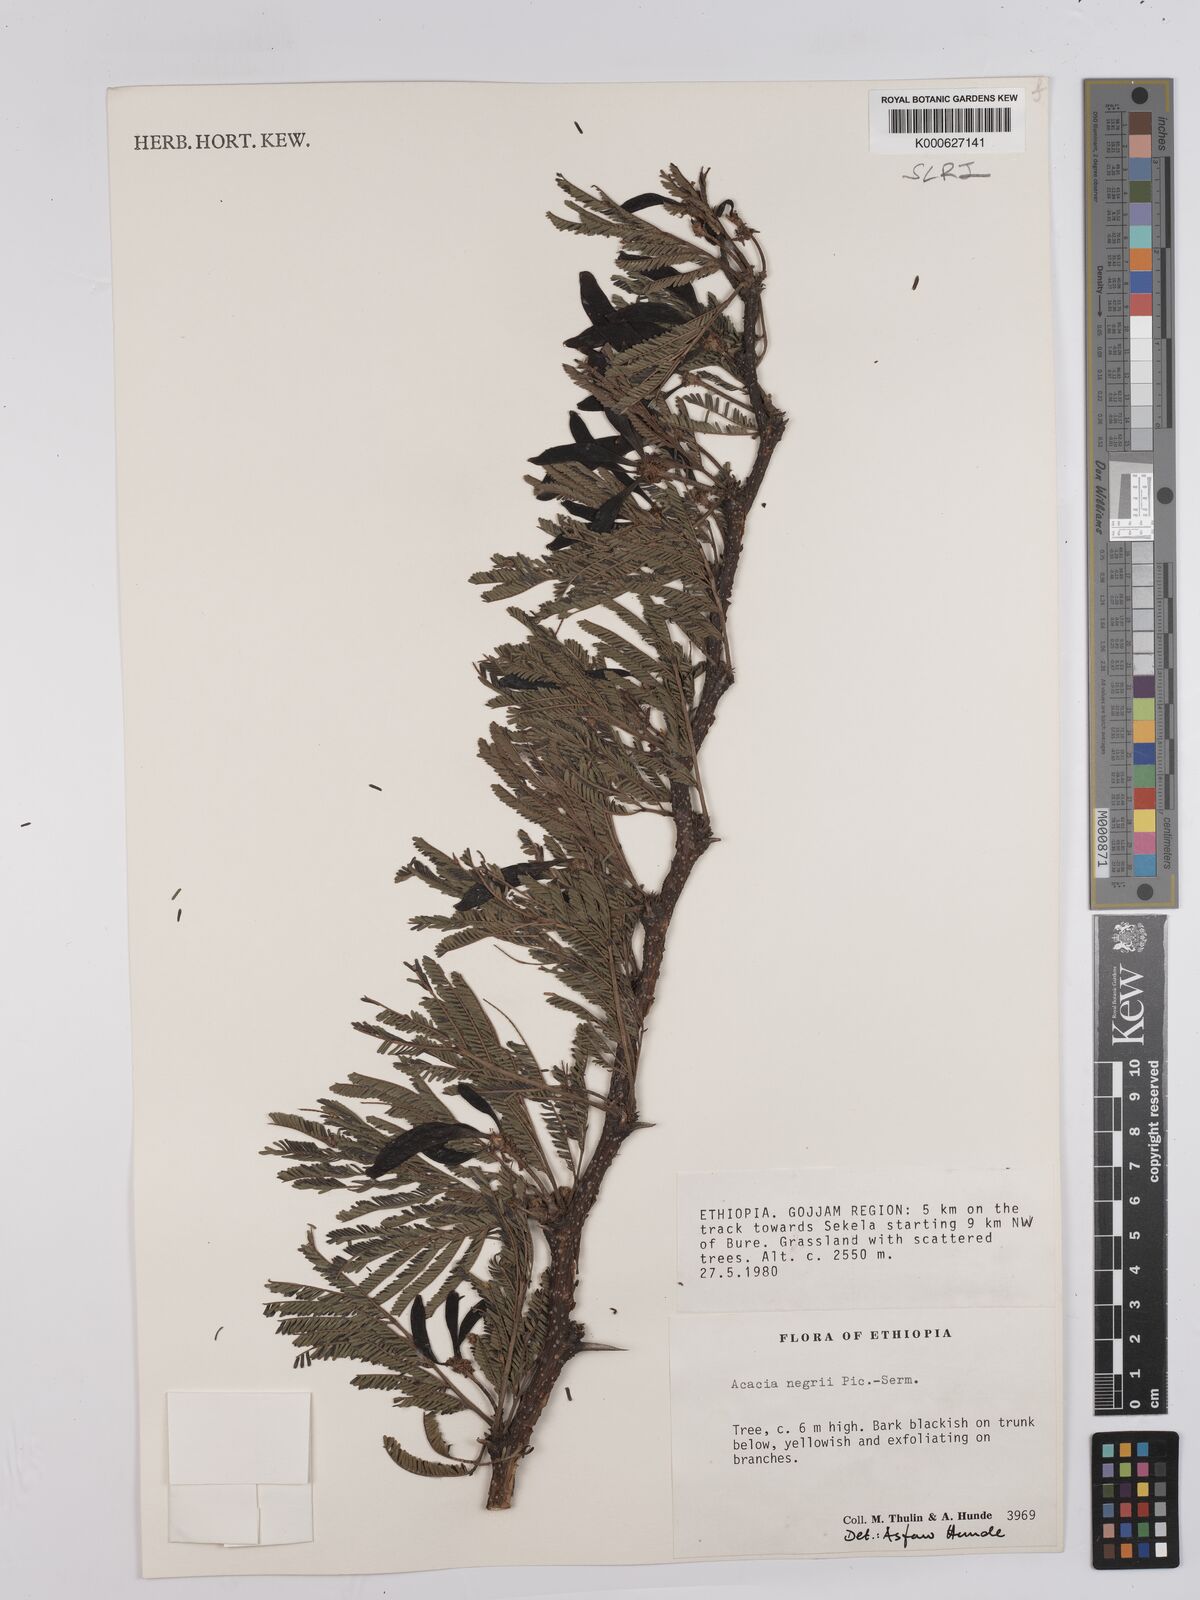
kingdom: Plantae
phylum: Tracheophyta
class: Magnoliopsida
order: Fabales
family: Fabaceae
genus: Vachellia
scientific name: Vachellia negrii
